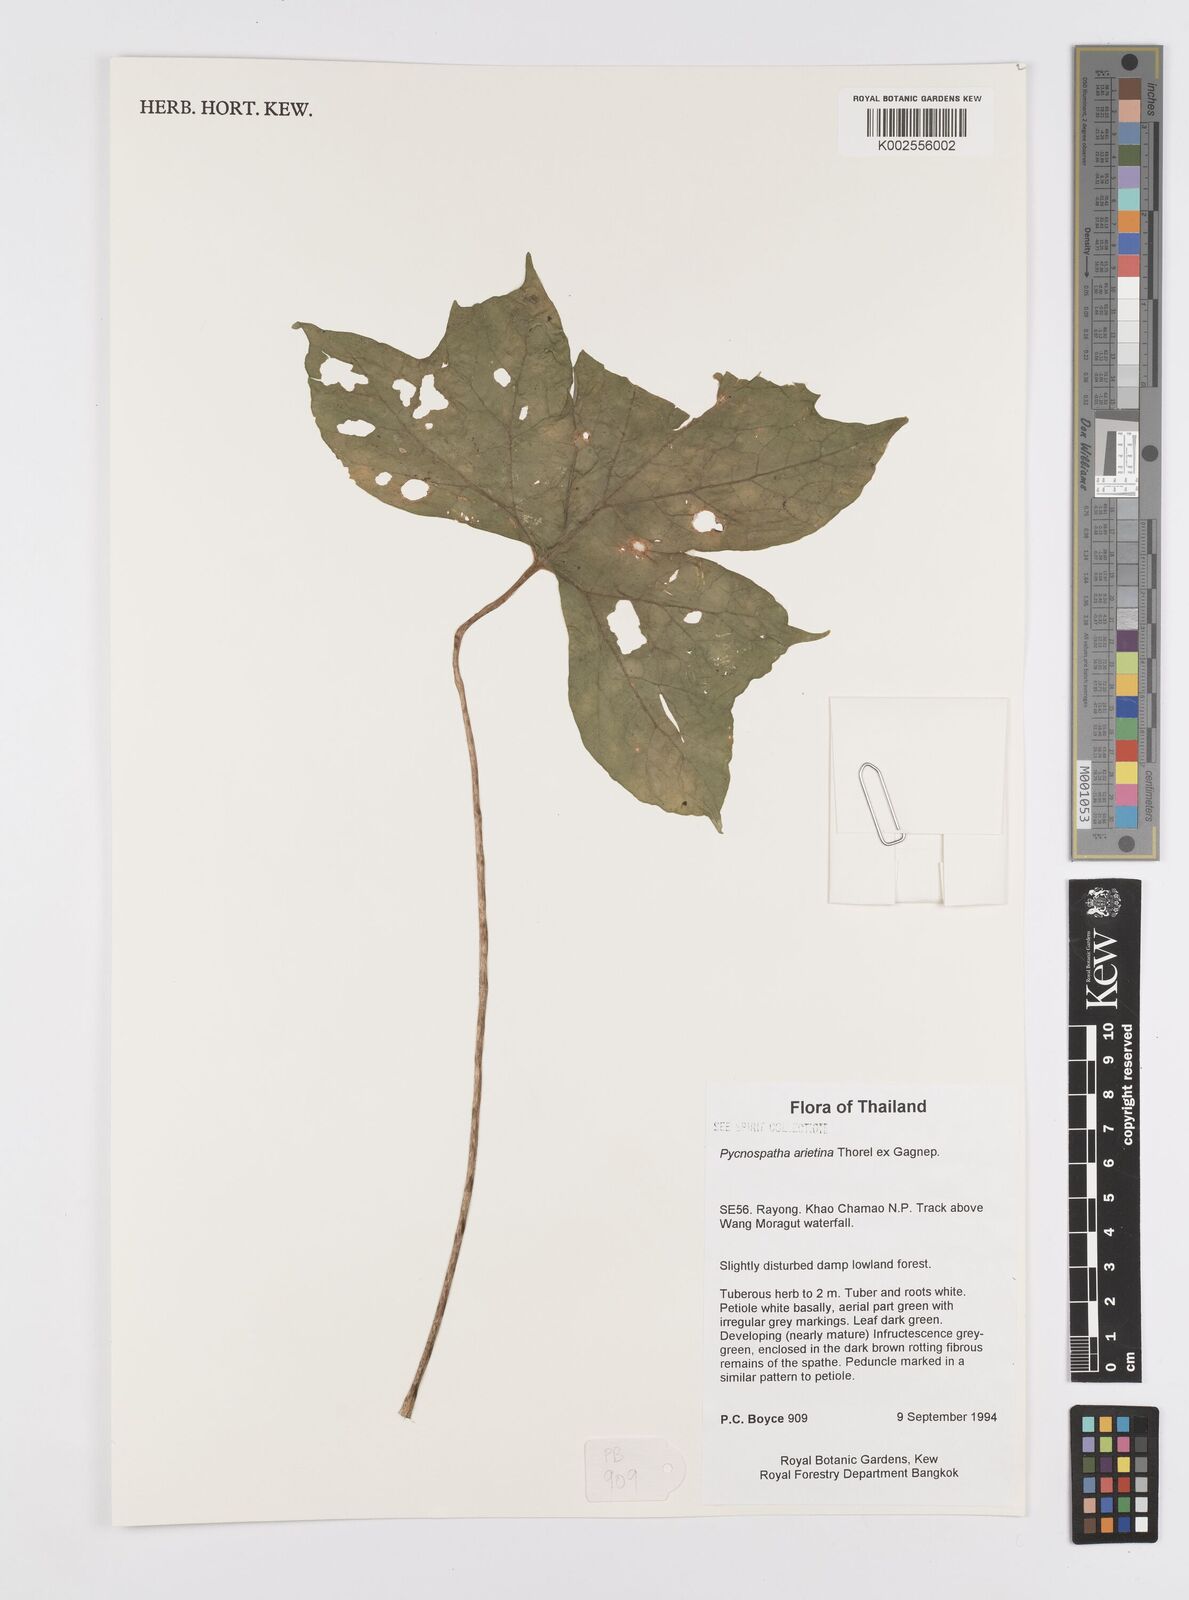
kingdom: Plantae
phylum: Tracheophyta
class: Liliopsida
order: Alismatales
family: Araceae
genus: Pycnospatha
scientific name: Pycnospatha arietina
